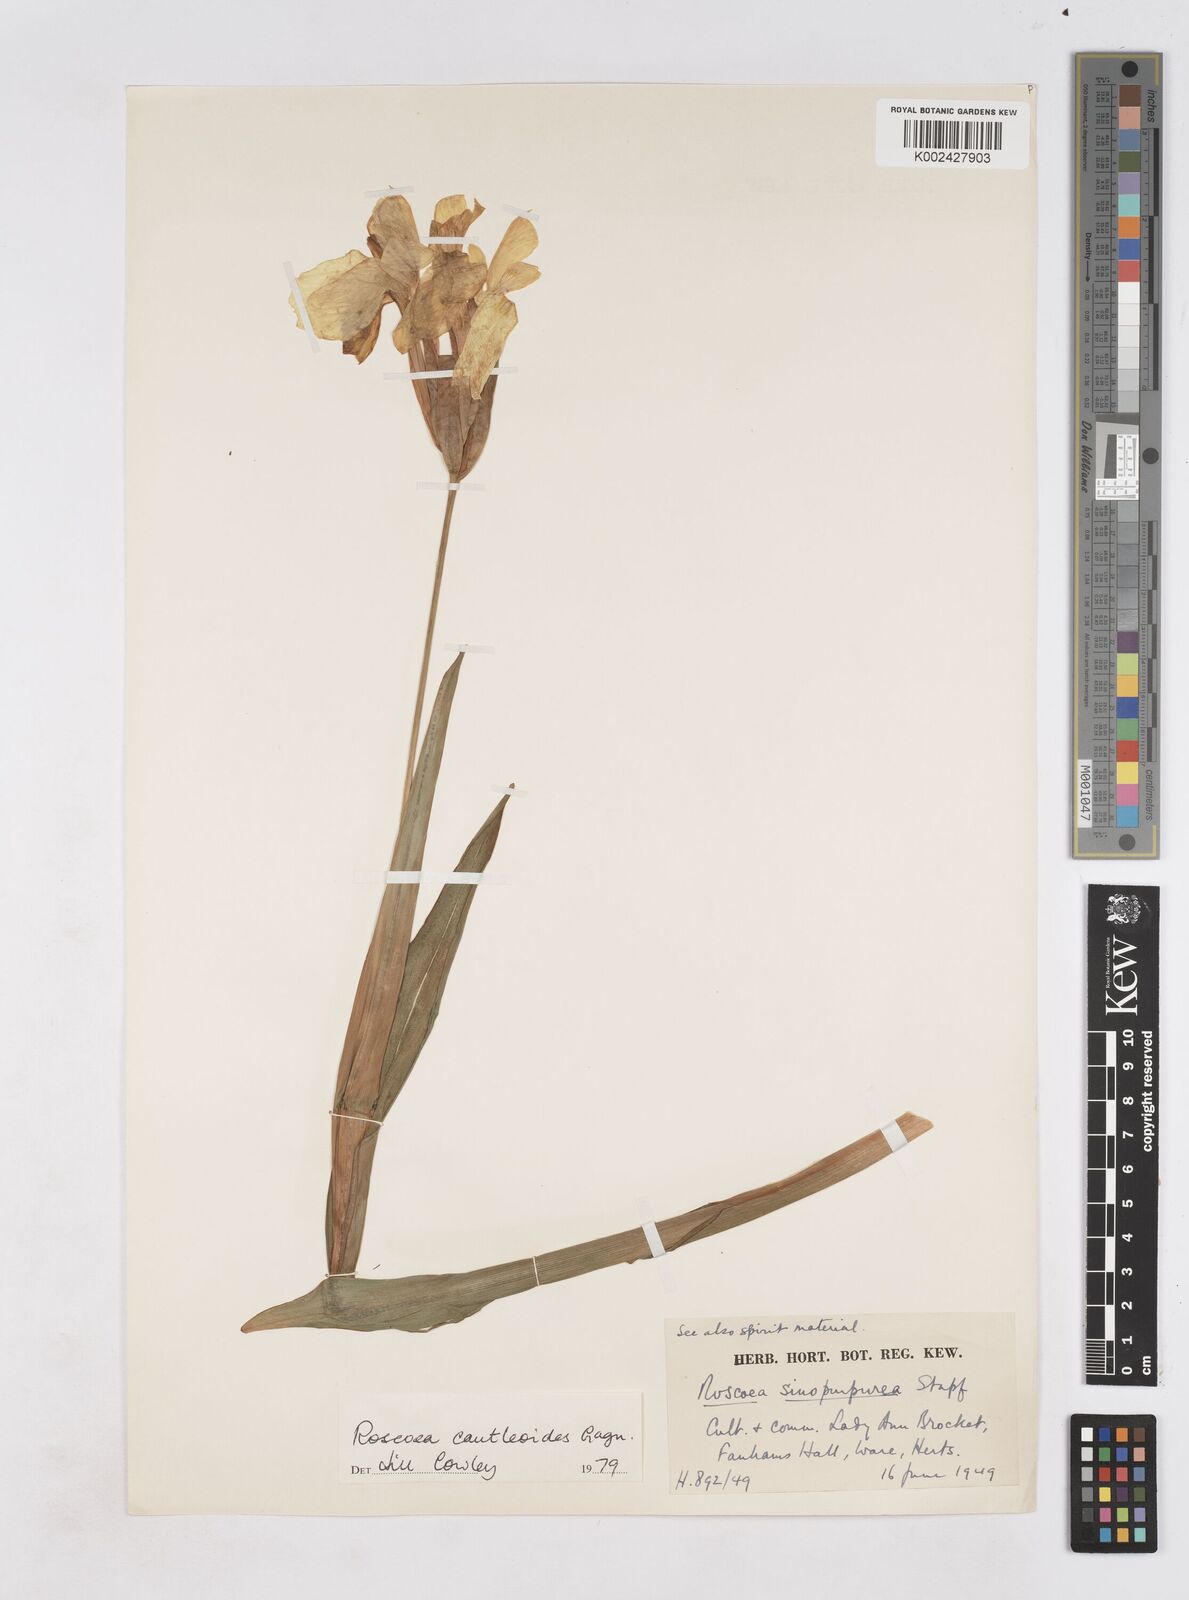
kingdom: Plantae
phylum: Tracheophyta
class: Liliopsida
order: Zingiberales
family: Zingiberaceae
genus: Roscoea
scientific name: Roscoea cautleyoides
